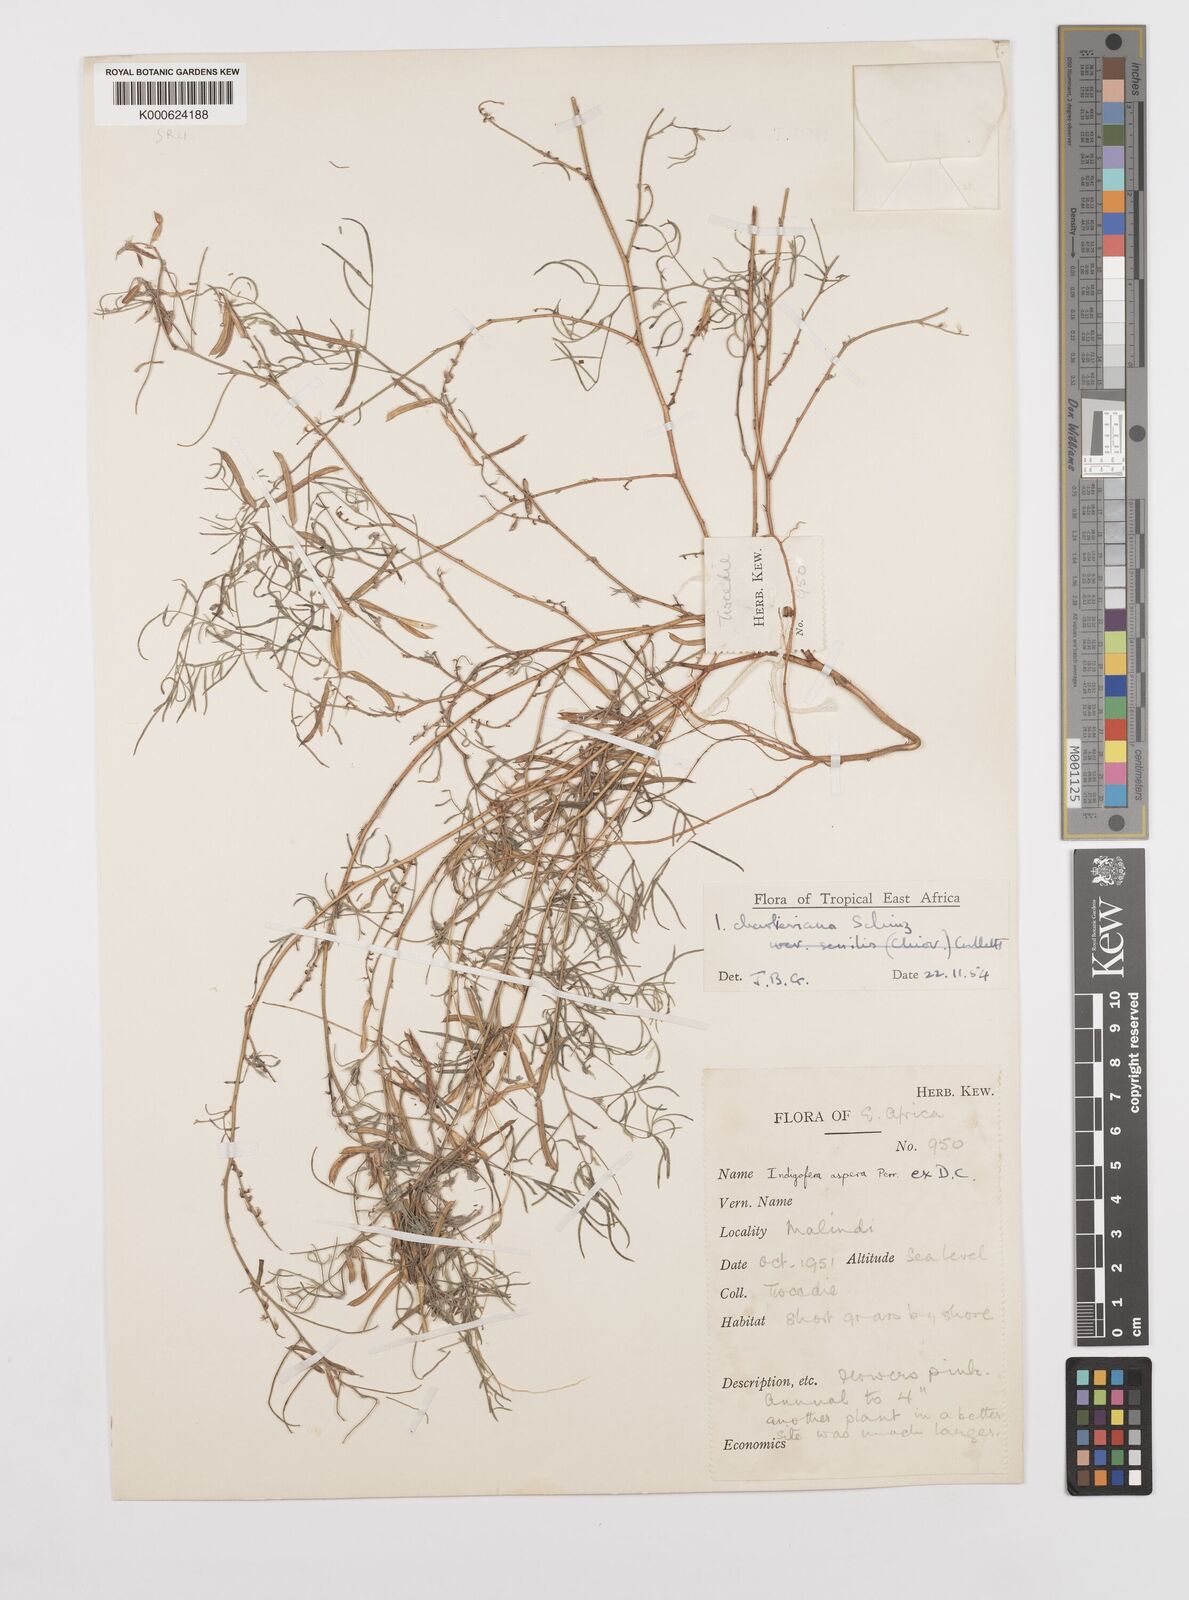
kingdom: Plantae
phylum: Tracheophyta
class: Magnoliopsida
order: Fabales
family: Fabaceae
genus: Indigofera
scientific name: Indigofera charlieriana
